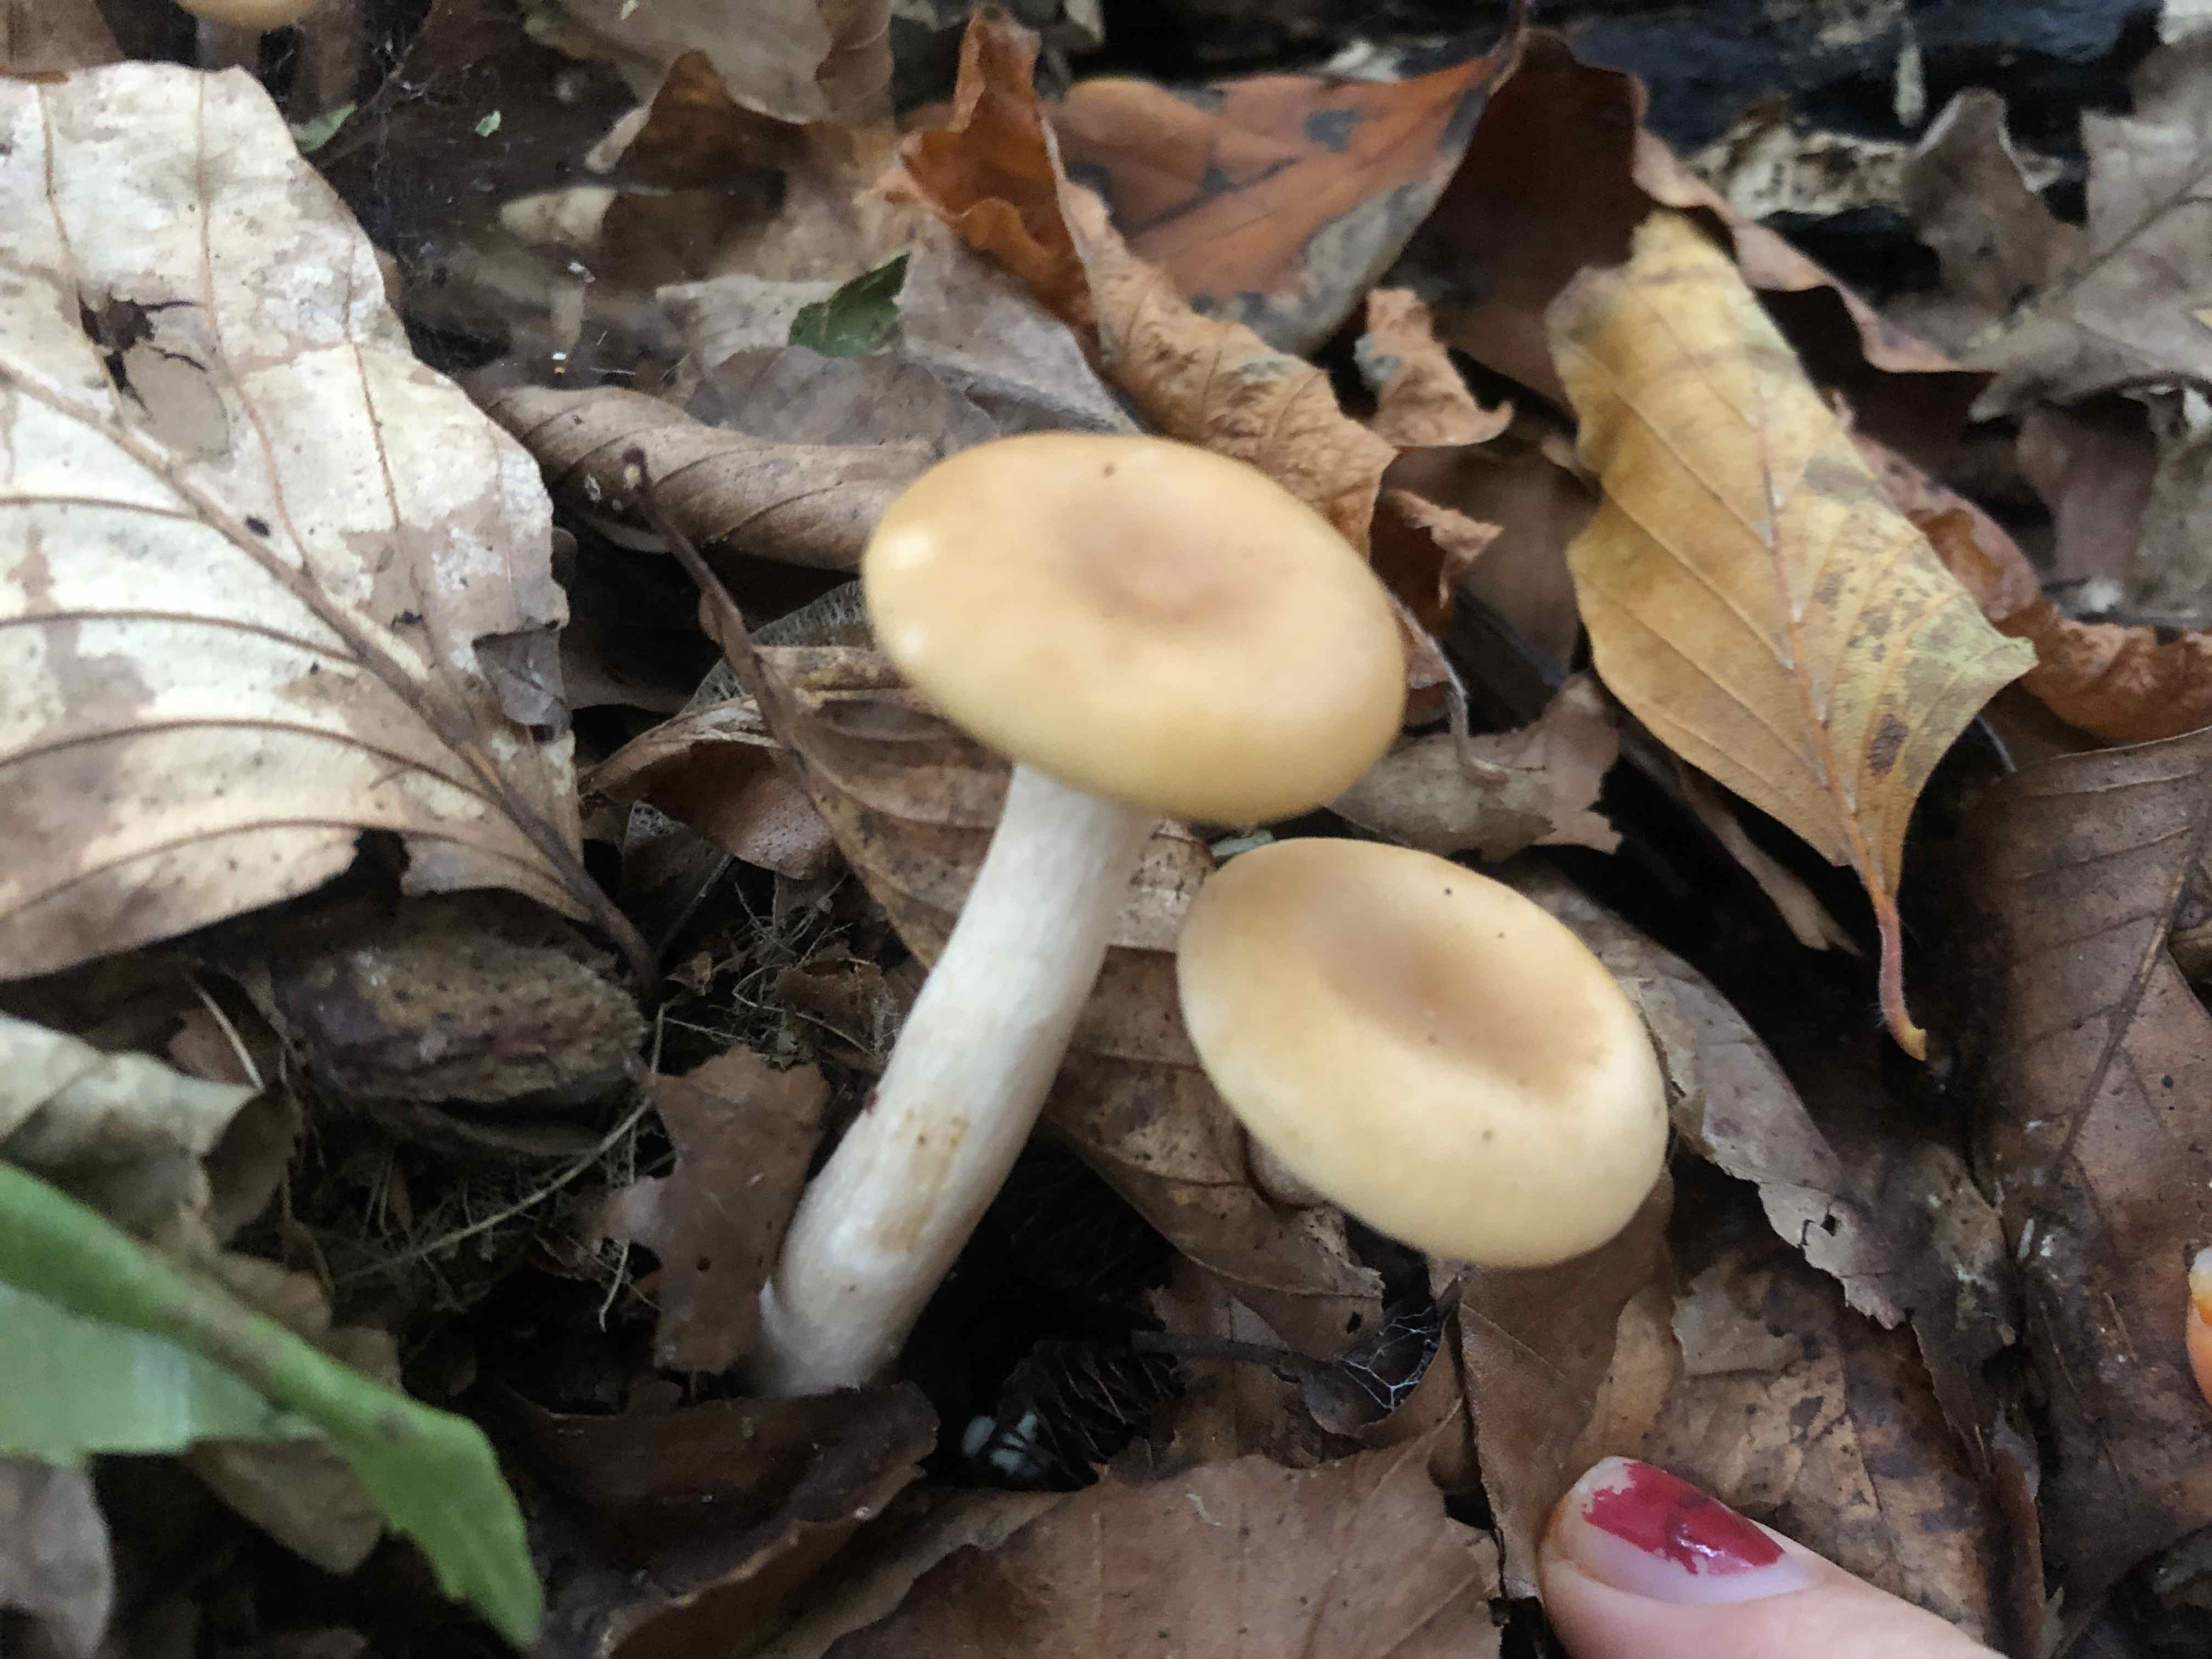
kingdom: Fungi
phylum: Basidiomycota
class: Agaricomycetes
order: Agaricales
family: Tricholomataceae
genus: Paralepista
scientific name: Paralepista flaccida
